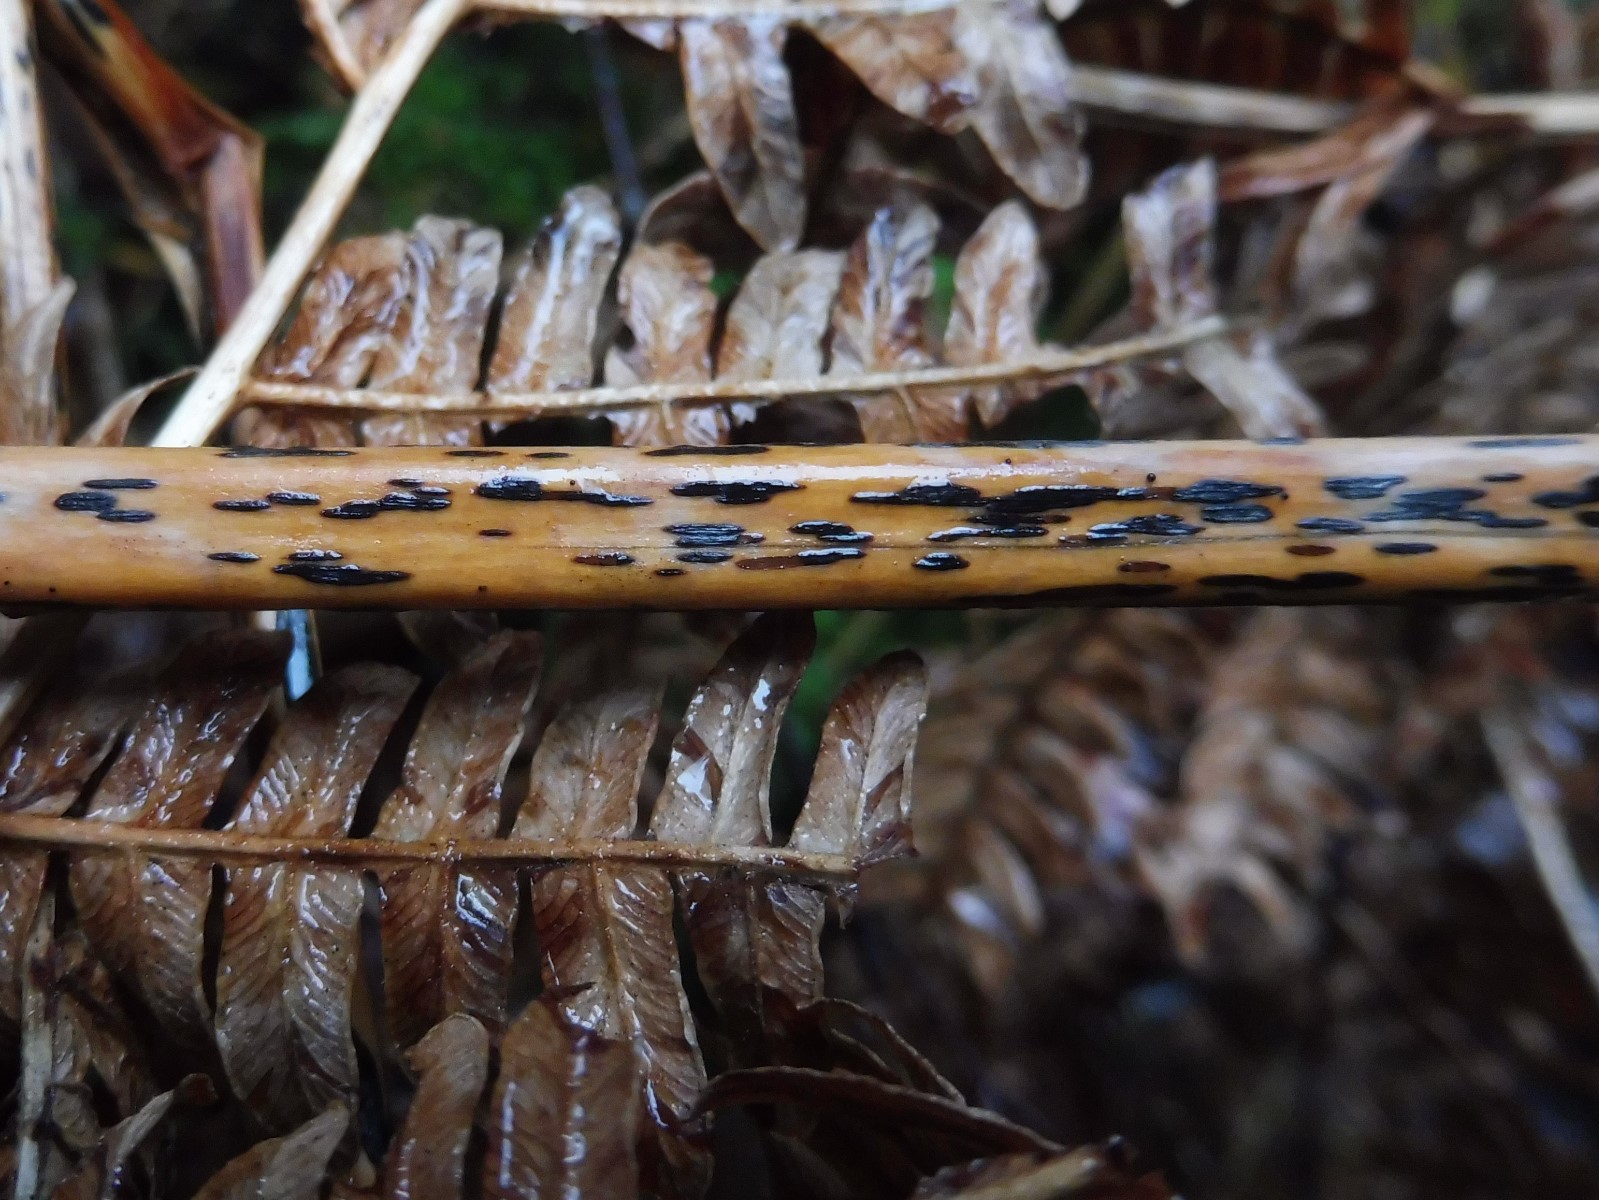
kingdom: Fungi
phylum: Ascomycota
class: Dothideomycetes
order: Pleosporales
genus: Rhopographus
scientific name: Rhopographus filicinus
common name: Bracken map
